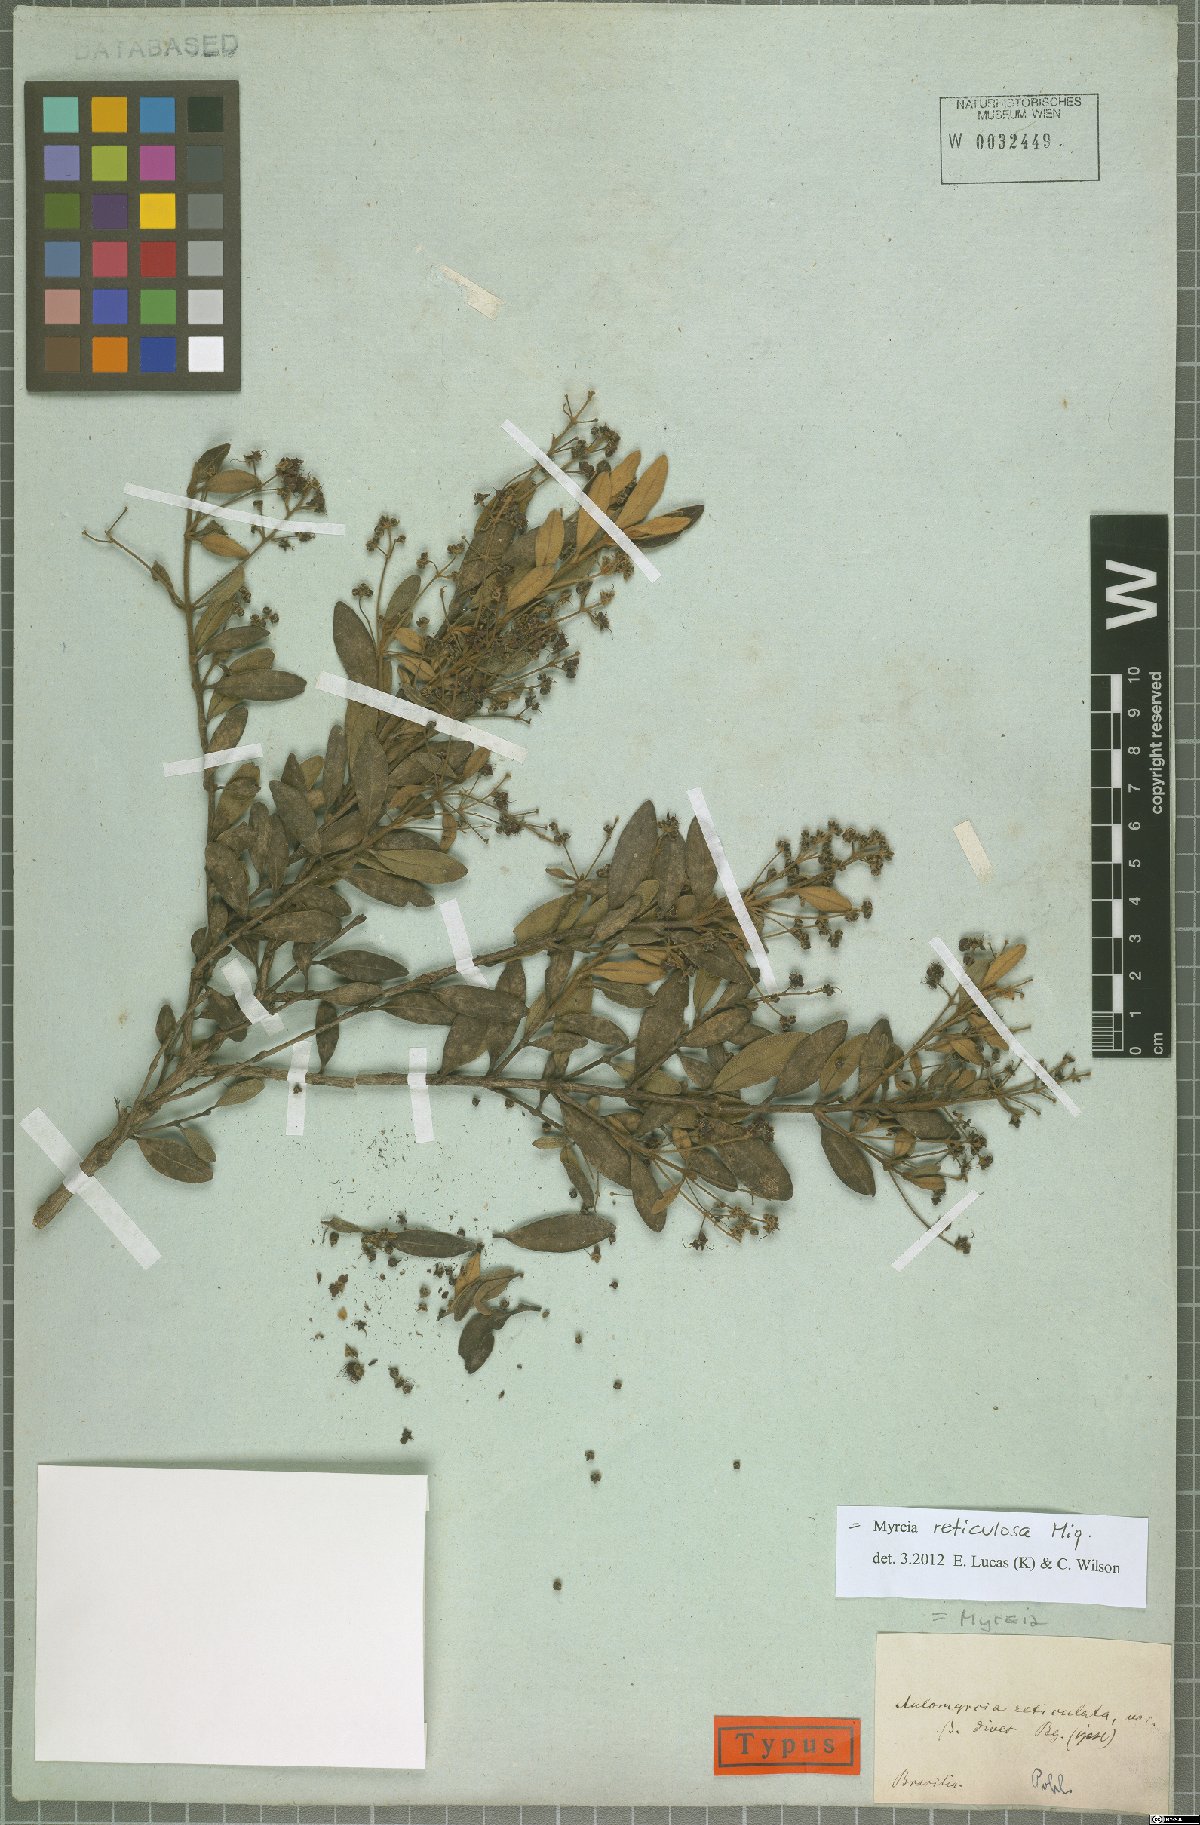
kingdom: Plantae
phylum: Tracheophyta
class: Magnoliopsida
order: Myrtales
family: Myrtaceae
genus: Myrcia
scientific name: Myrcia reticulosa
